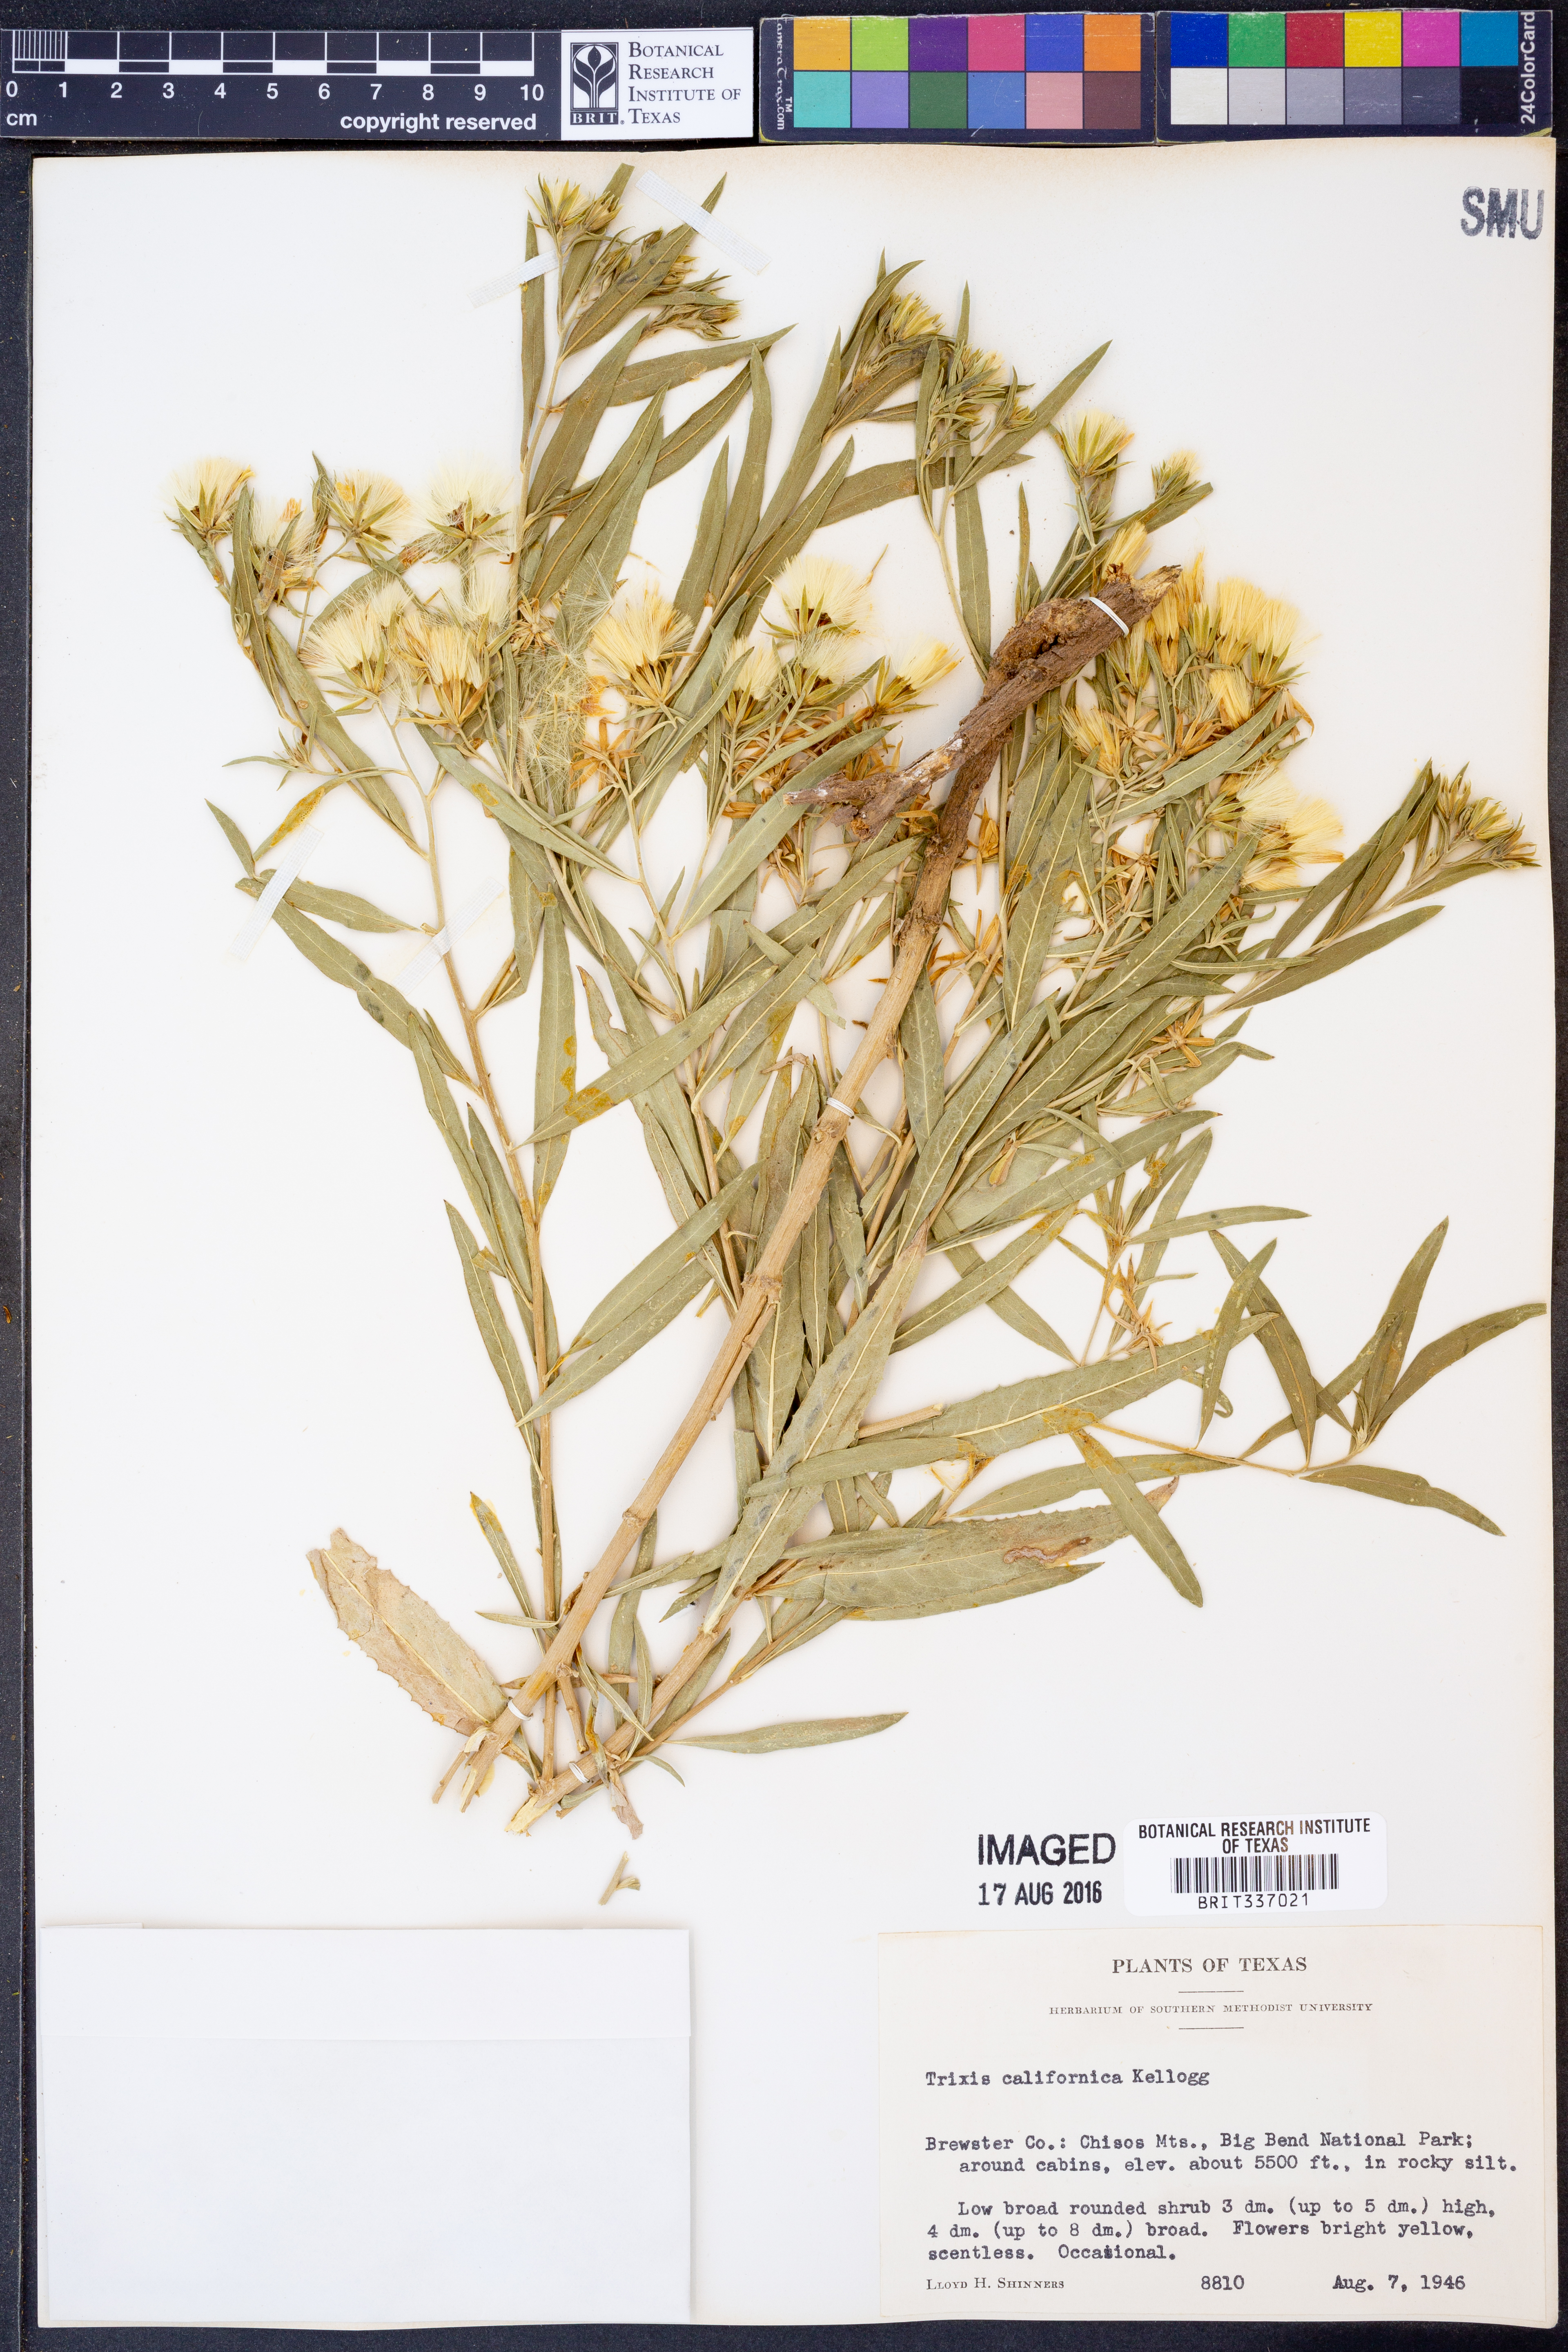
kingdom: Plantae
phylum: Tracheophyta
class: Magnoliopsida
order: Asterales
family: Asteraceae
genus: Trixis
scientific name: Trixis californica
